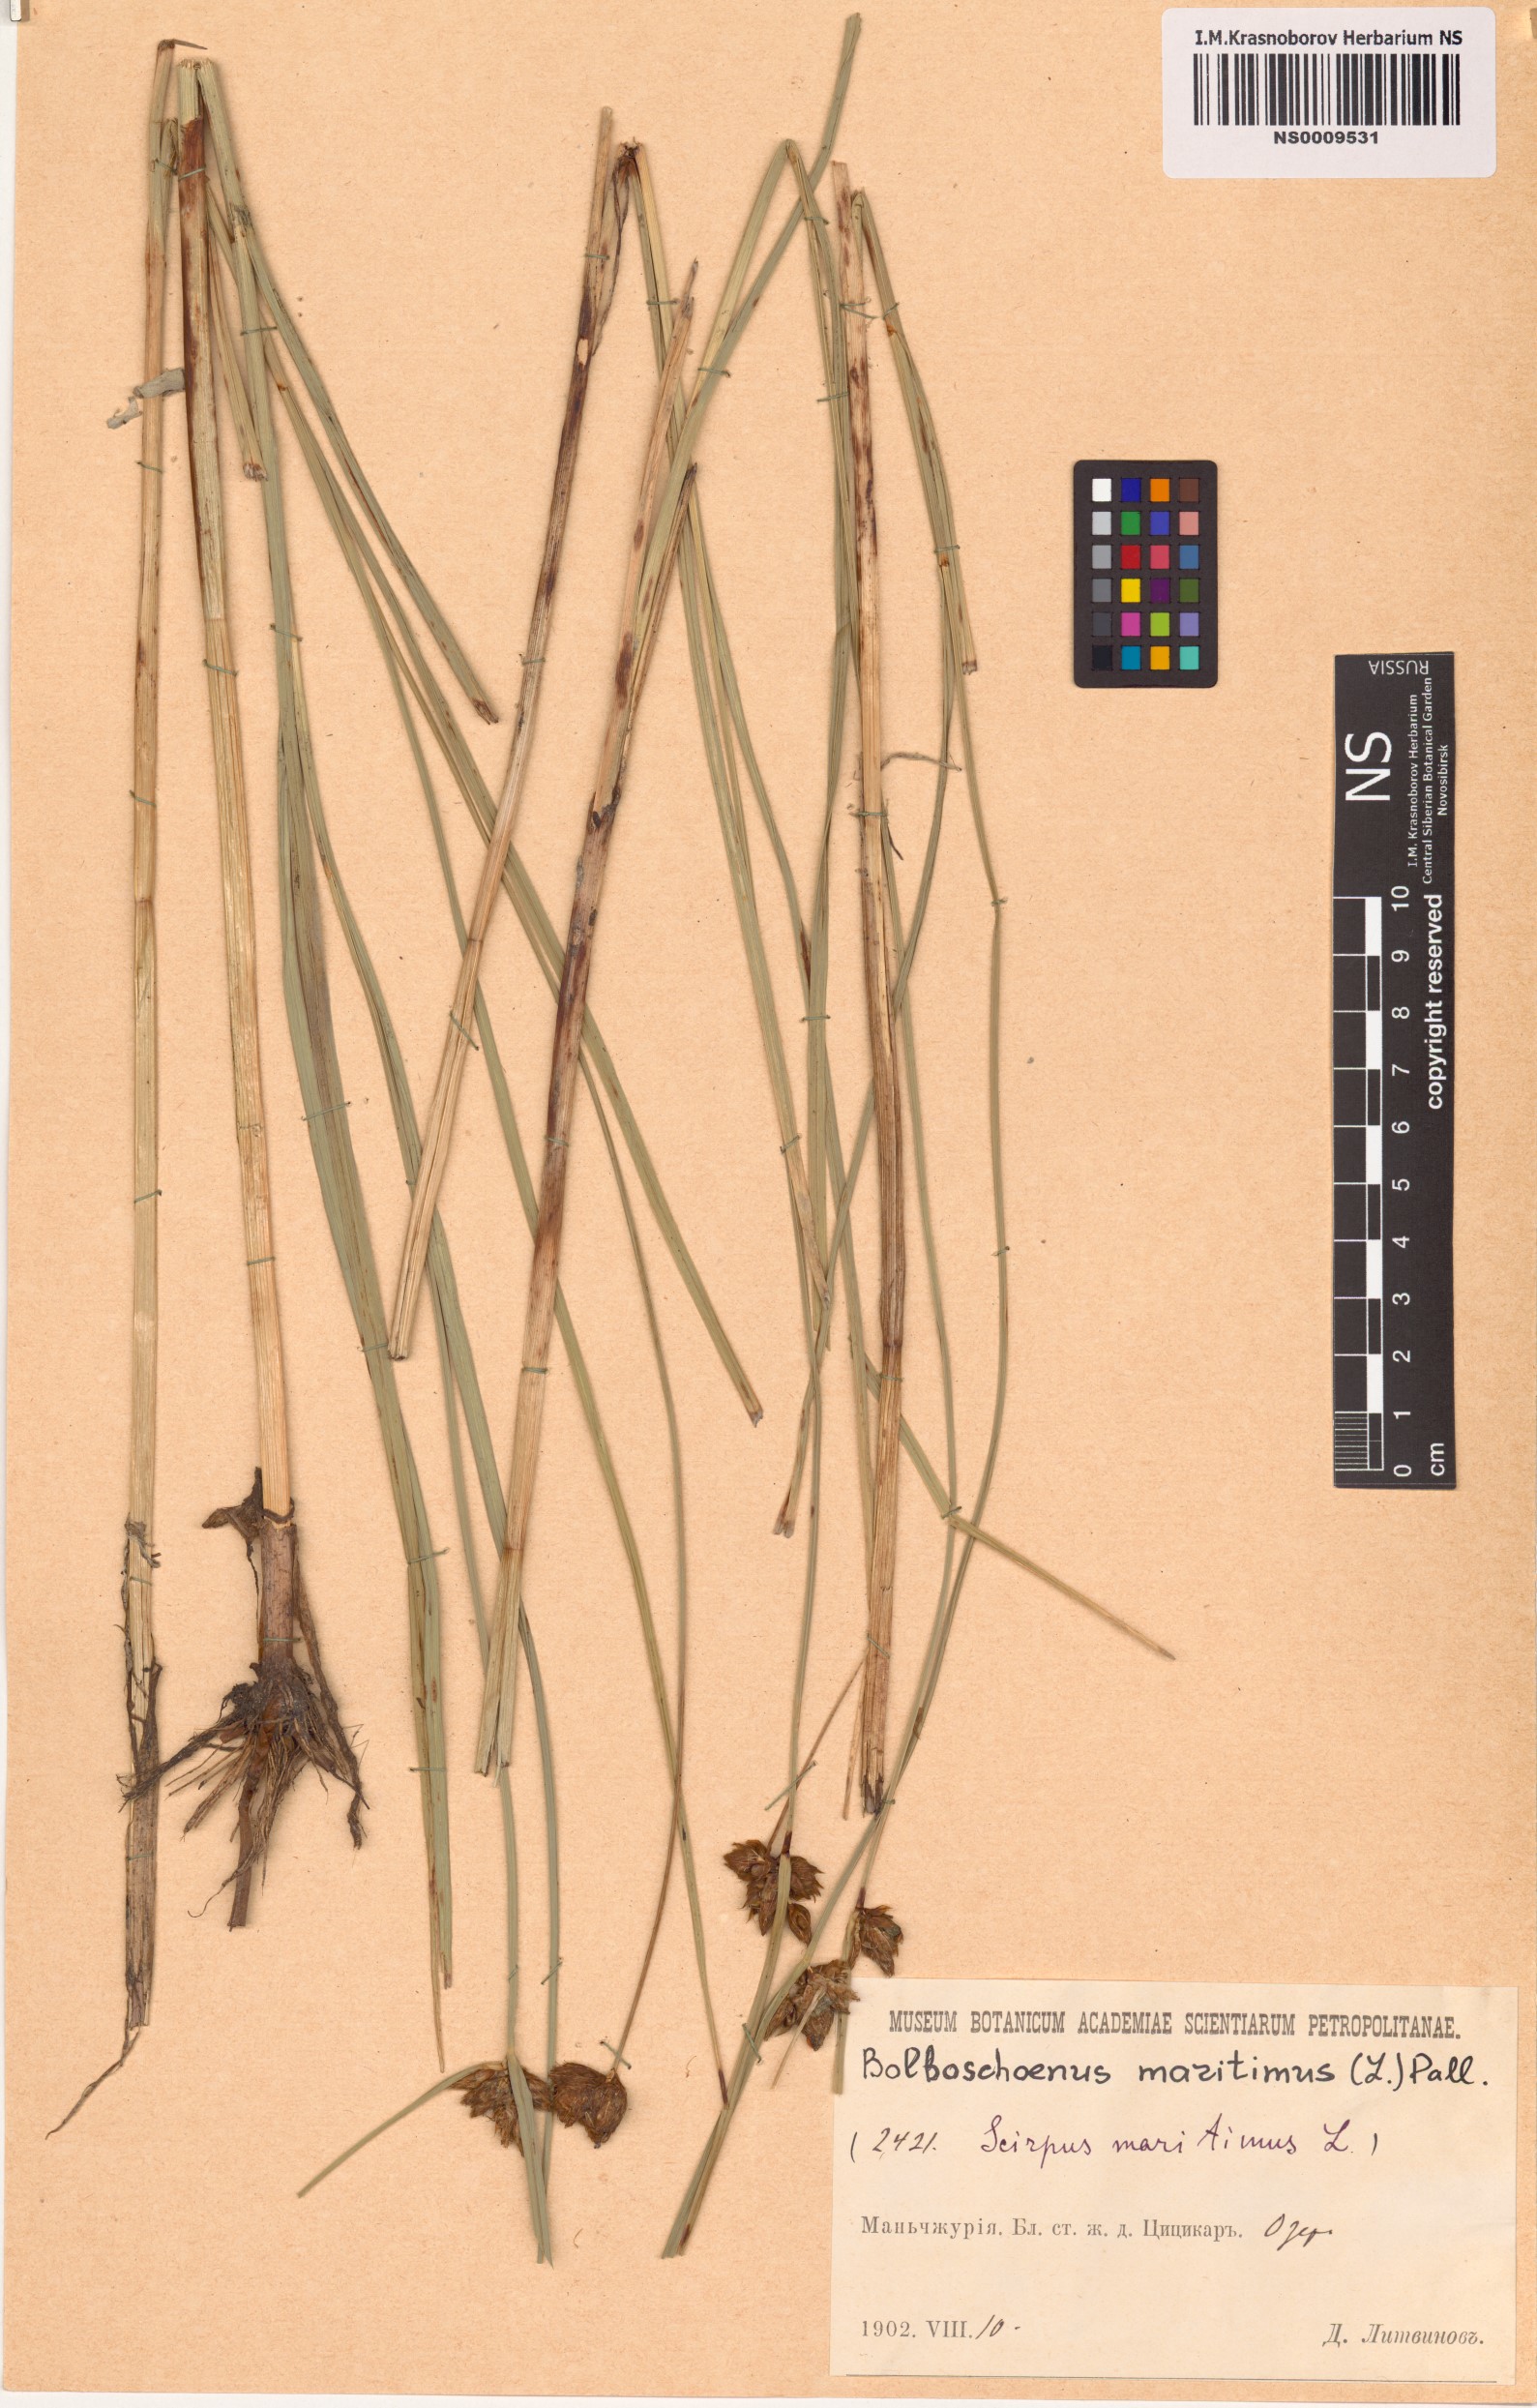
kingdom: Plantae
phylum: Tracheophyta
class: Liliopsida
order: Poales
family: Cyperaceae
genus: Bolboschoenus
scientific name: Bolboschoenus maritimus
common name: Sea club-rush
